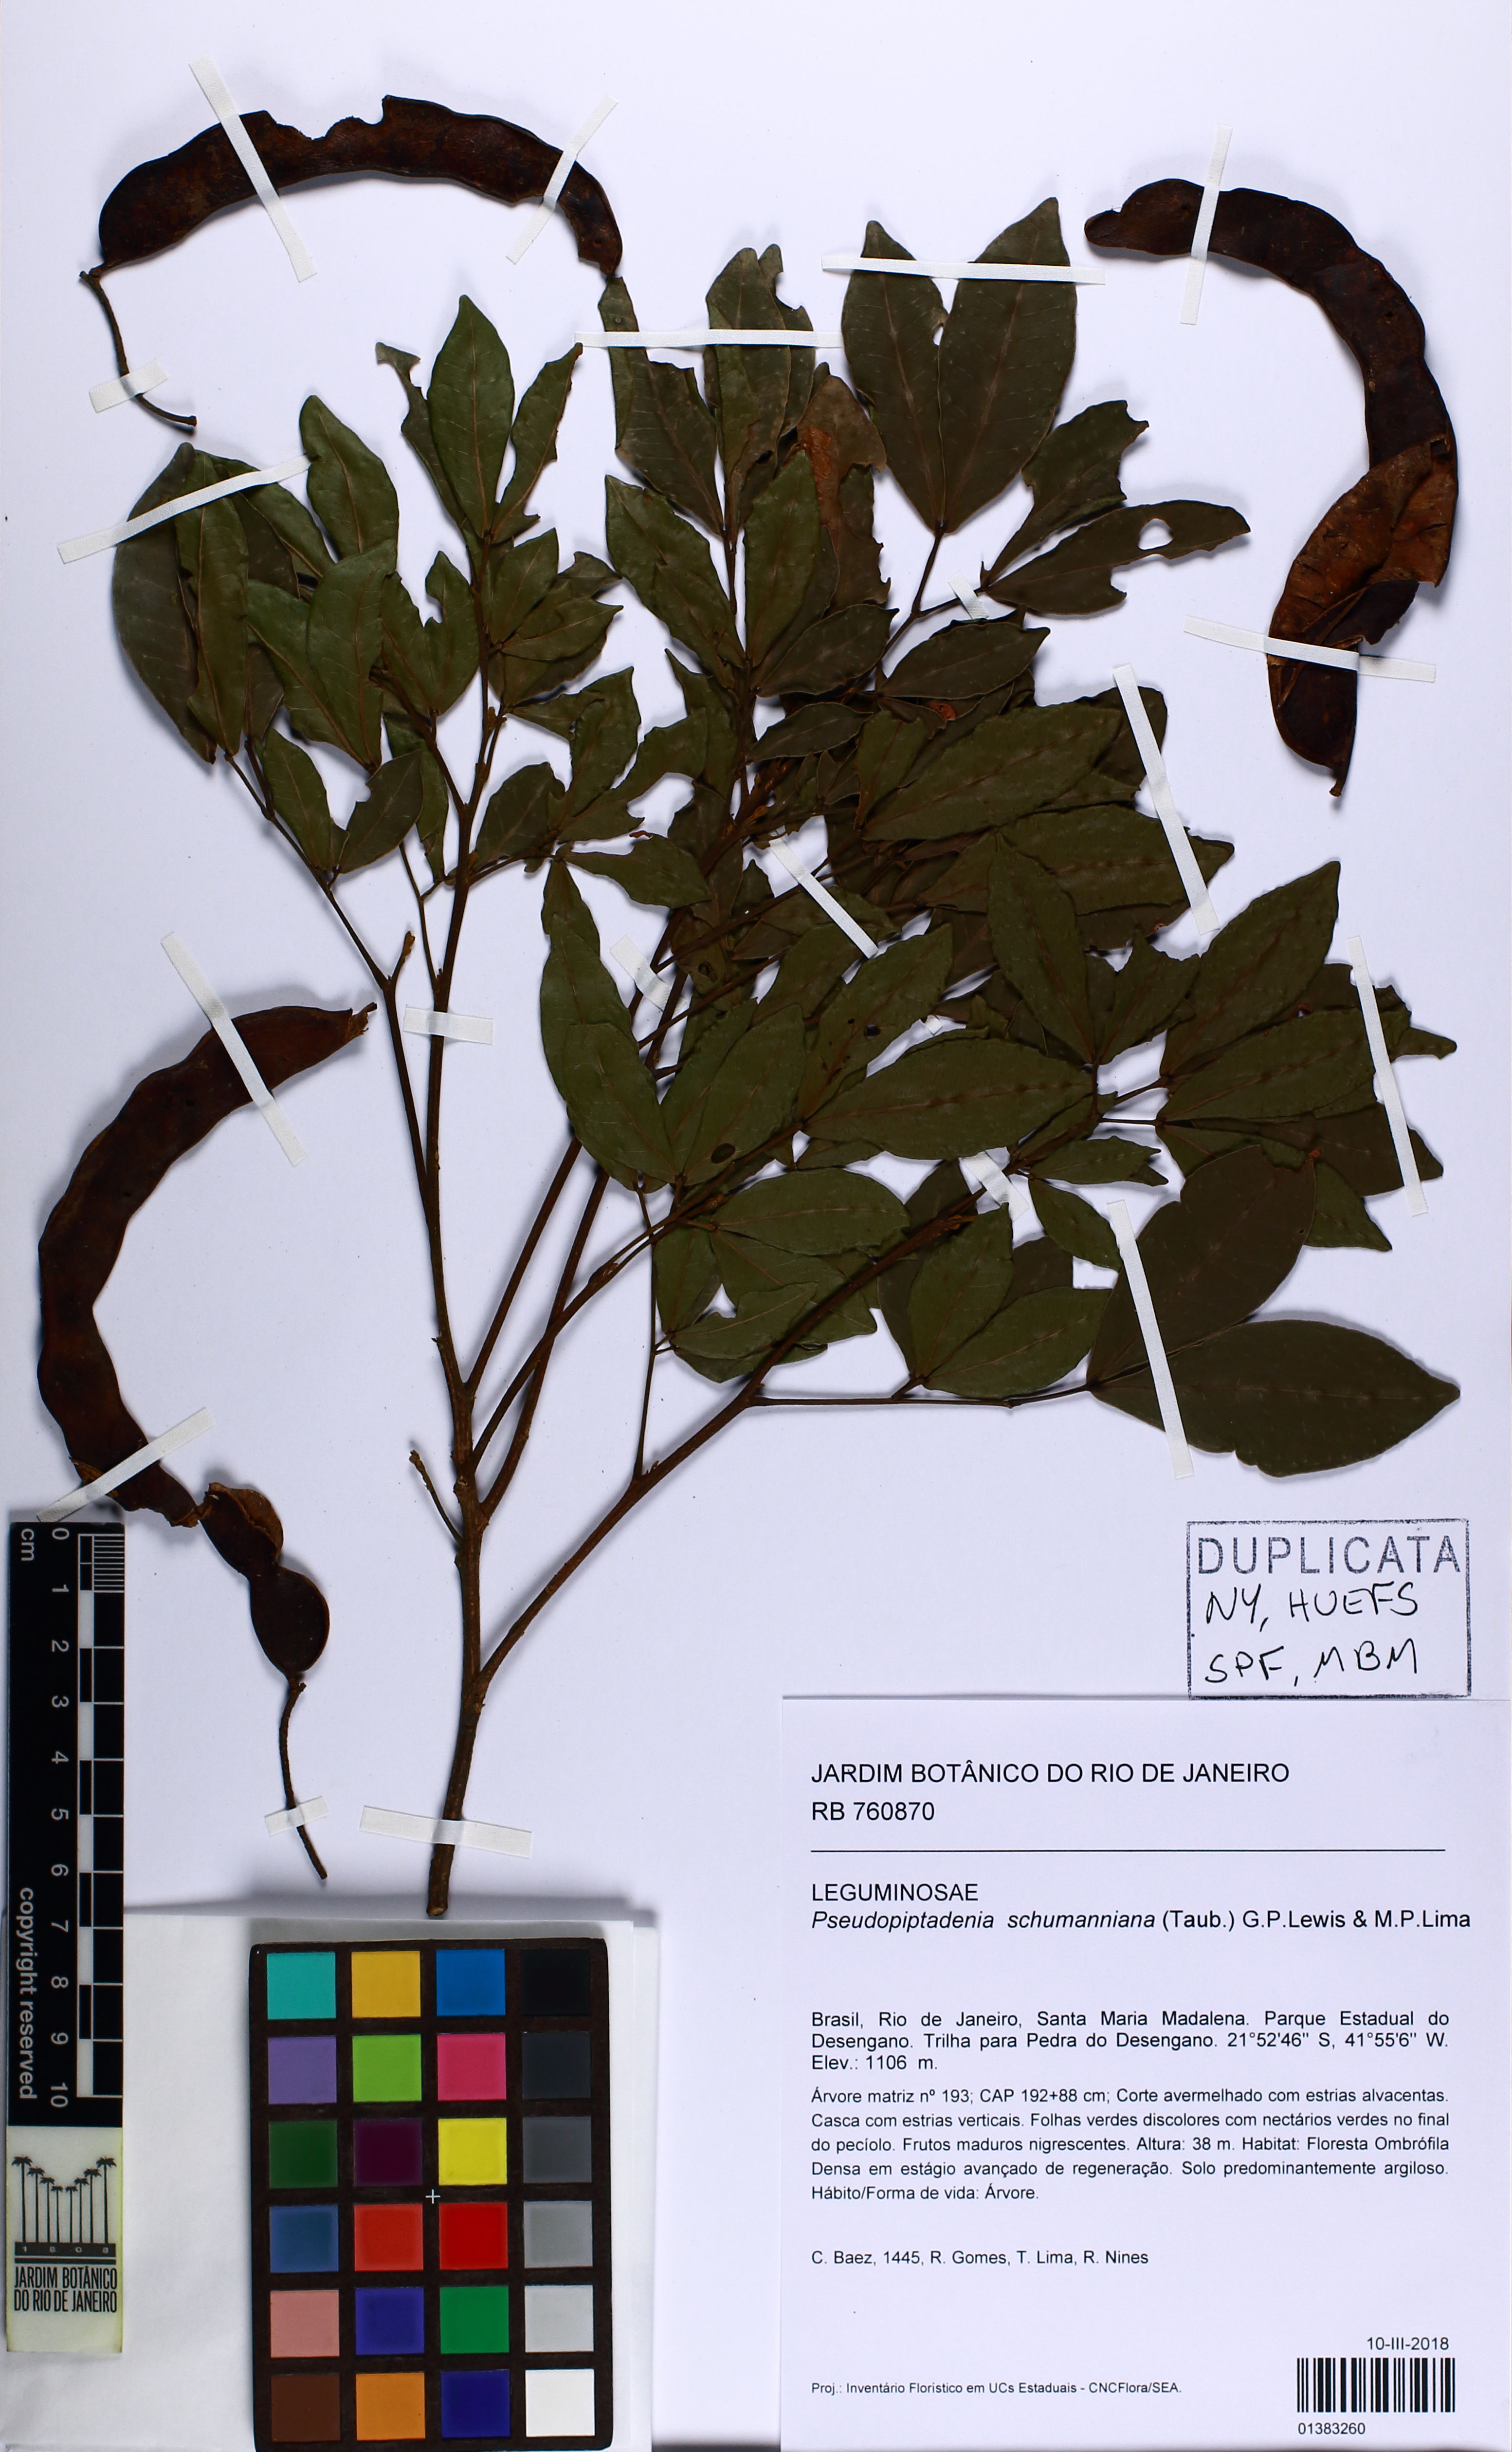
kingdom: Plantae
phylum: Tracheophyta
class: Magnoliopsida
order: Fabales
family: Fabaceae
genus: Pseudopiptadenia
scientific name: Pseudopiptadenia schumanniana
